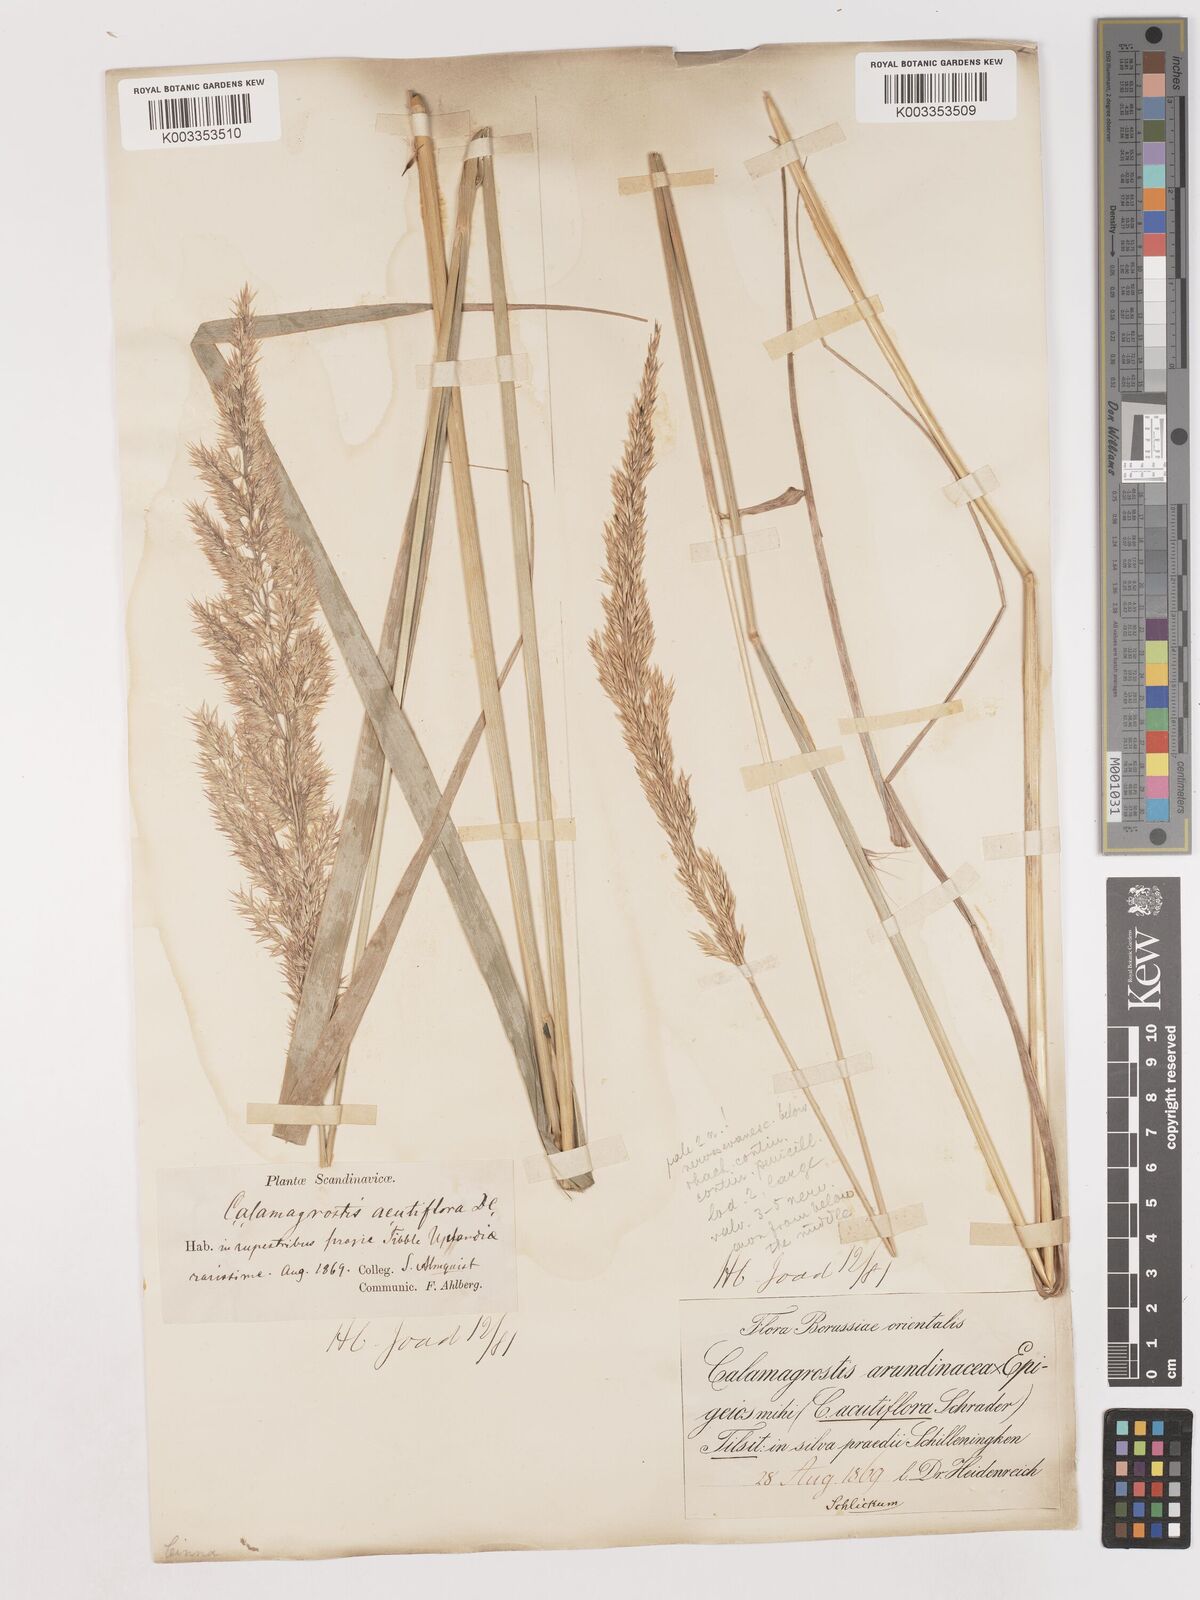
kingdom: Plantae
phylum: Tracheophyta
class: Liliopsida
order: Poales
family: Poaceae
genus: Calamagrostis
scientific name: Calamagrostis
